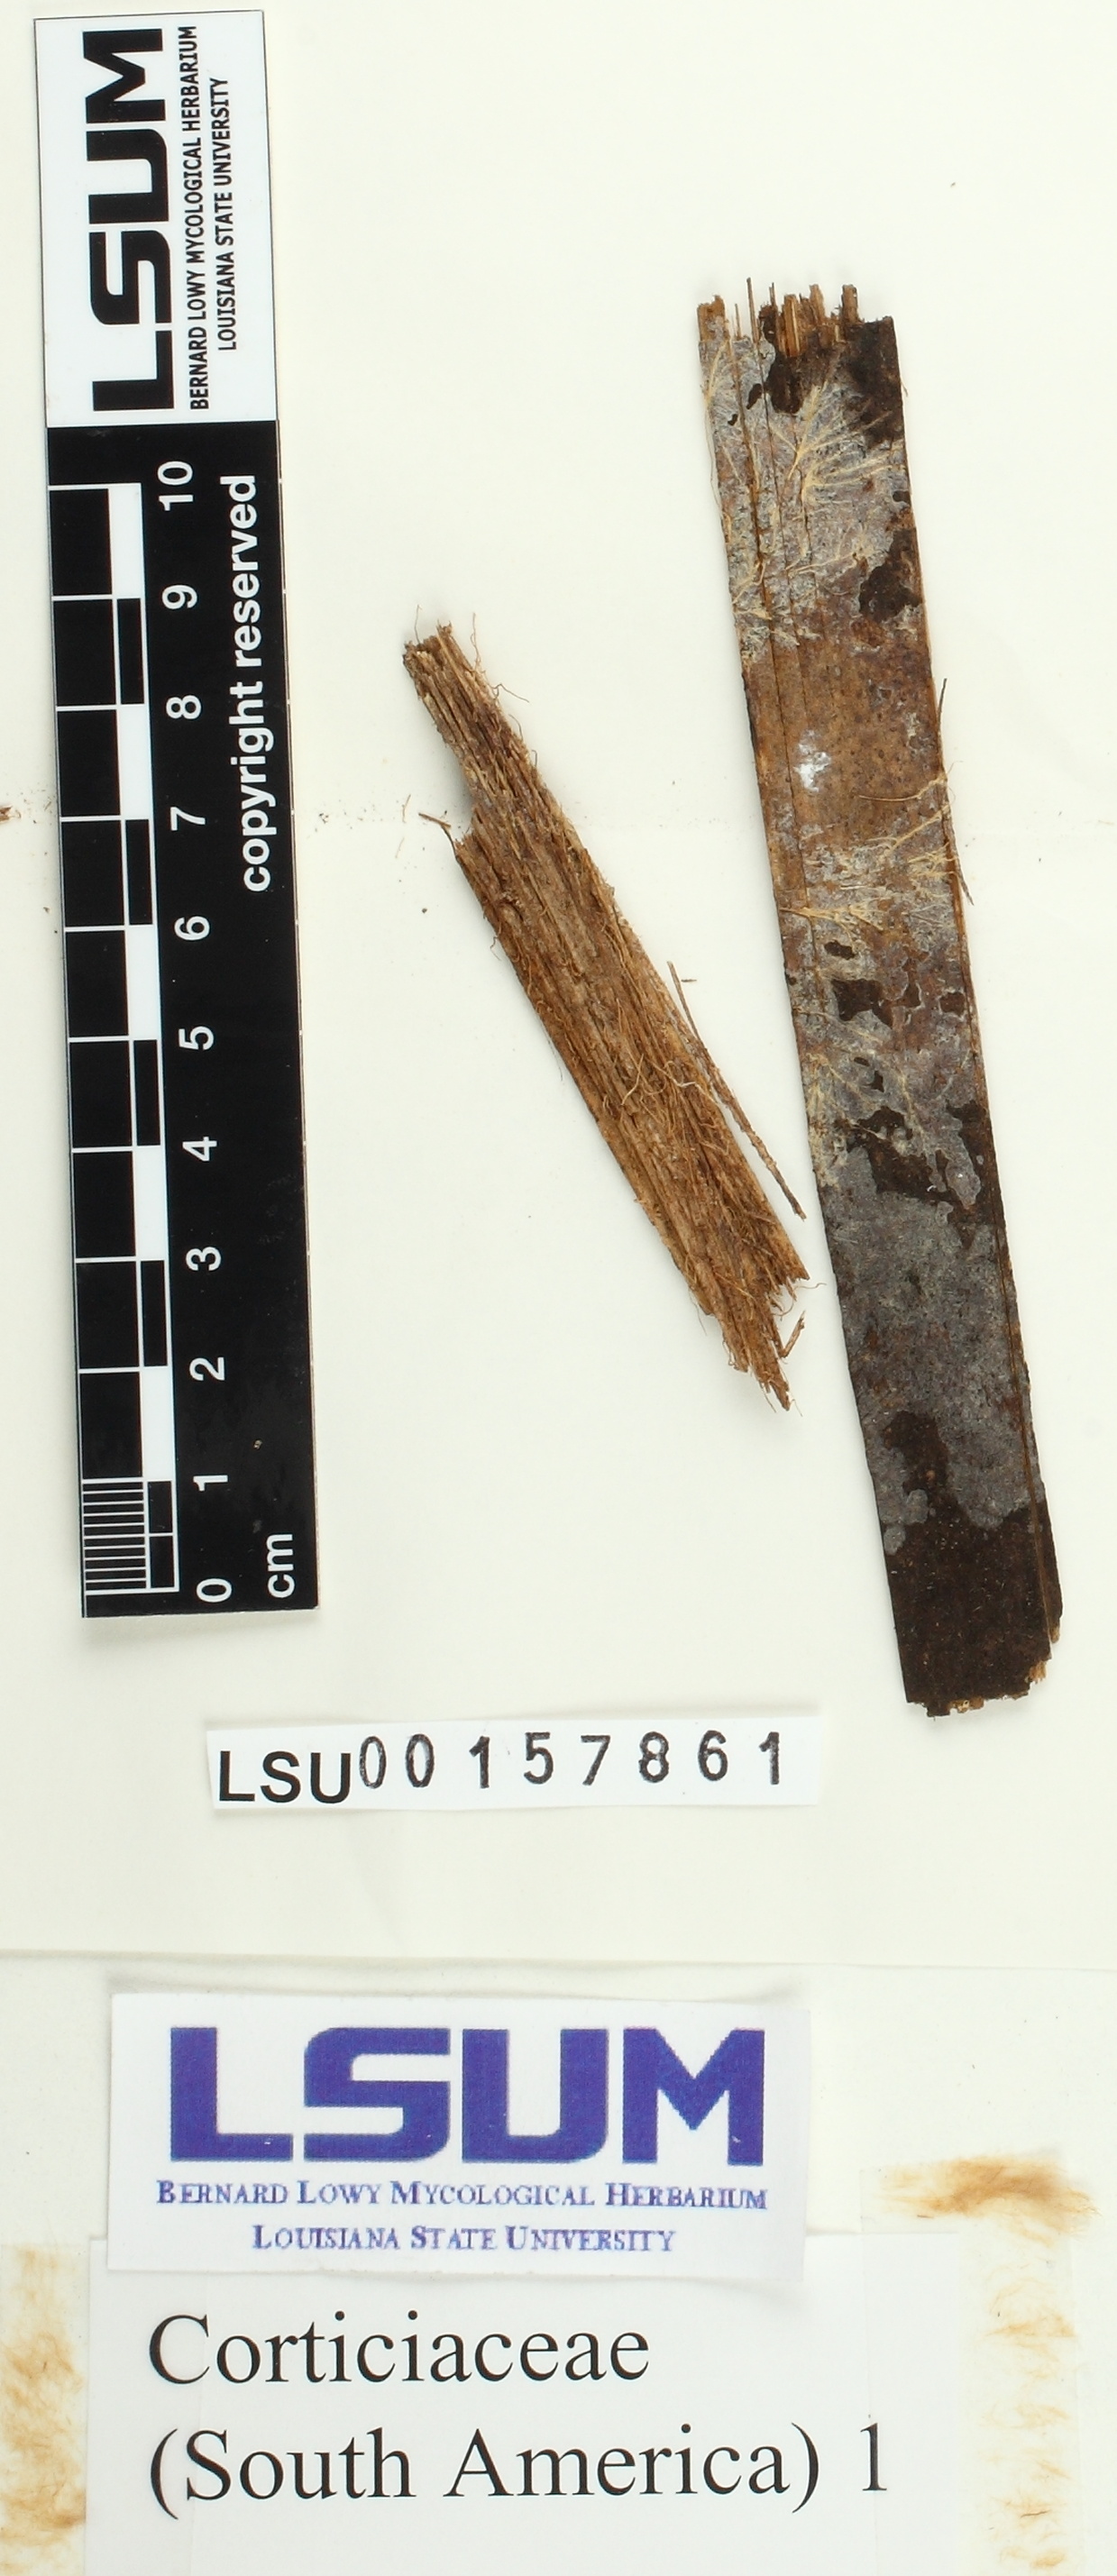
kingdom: Fungi
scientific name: Fungi
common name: Fungi
